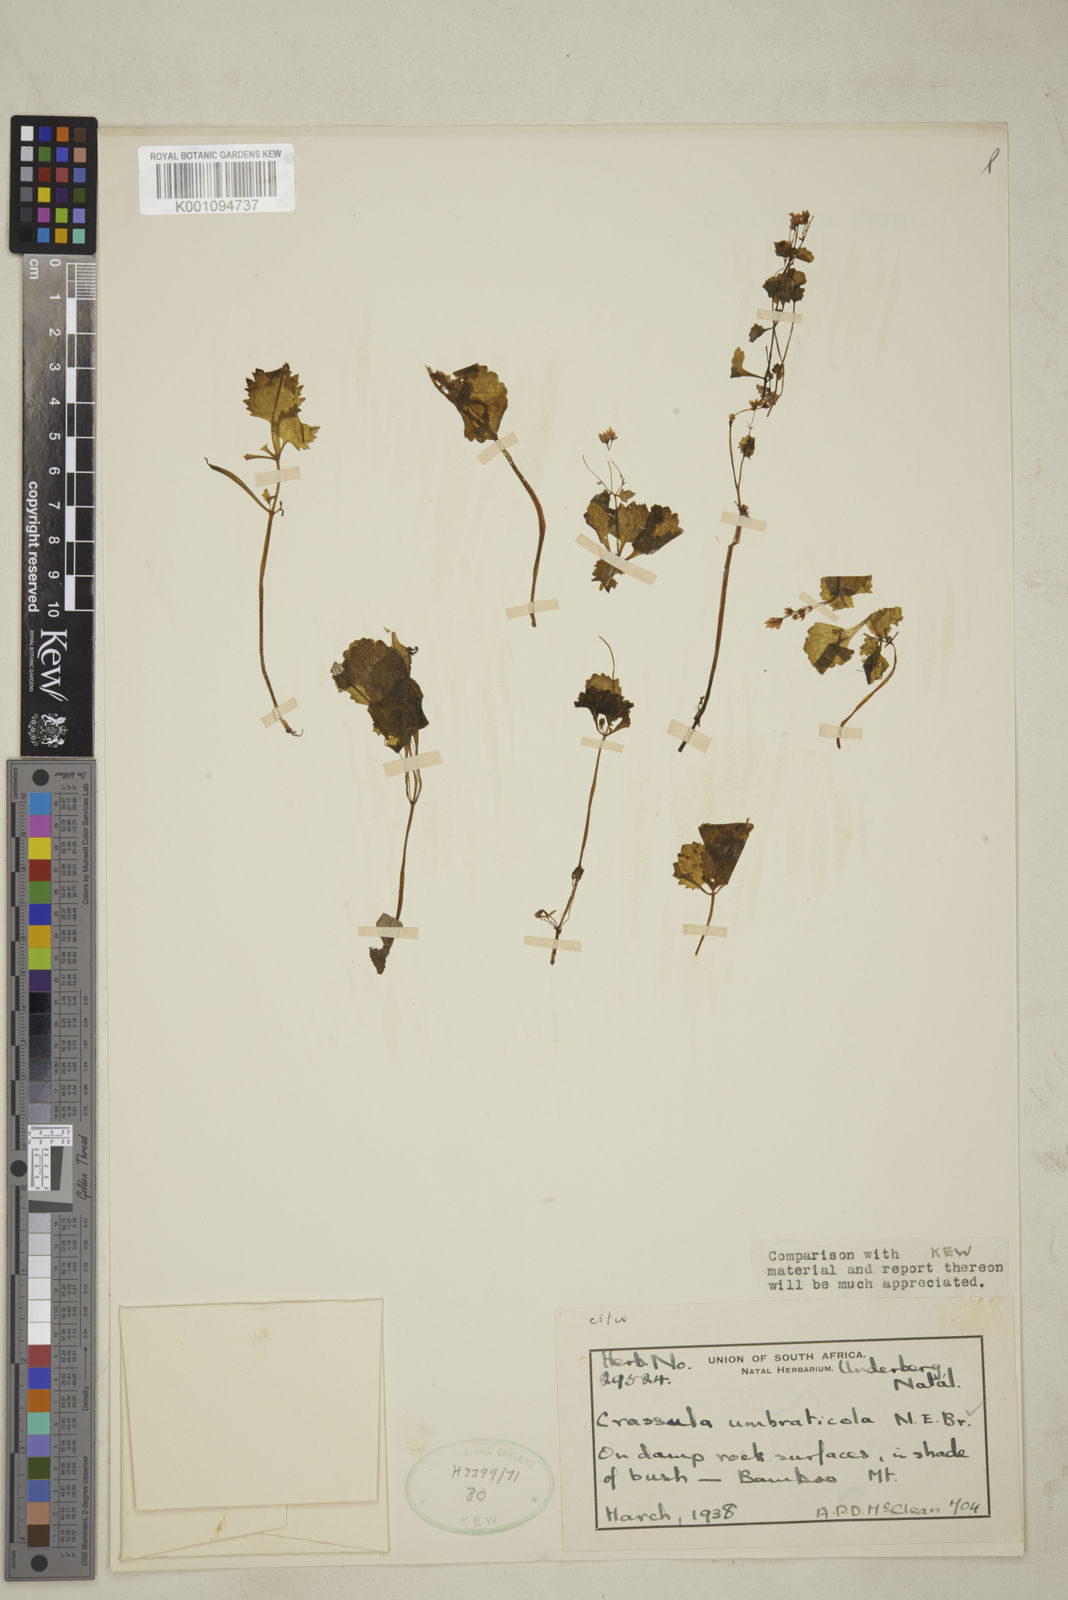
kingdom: Plantae
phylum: Tracheophyta
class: Magnoliopsida
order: Saxifragales
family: Crassulaceae
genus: Crassula
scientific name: Crassula umbraticola
